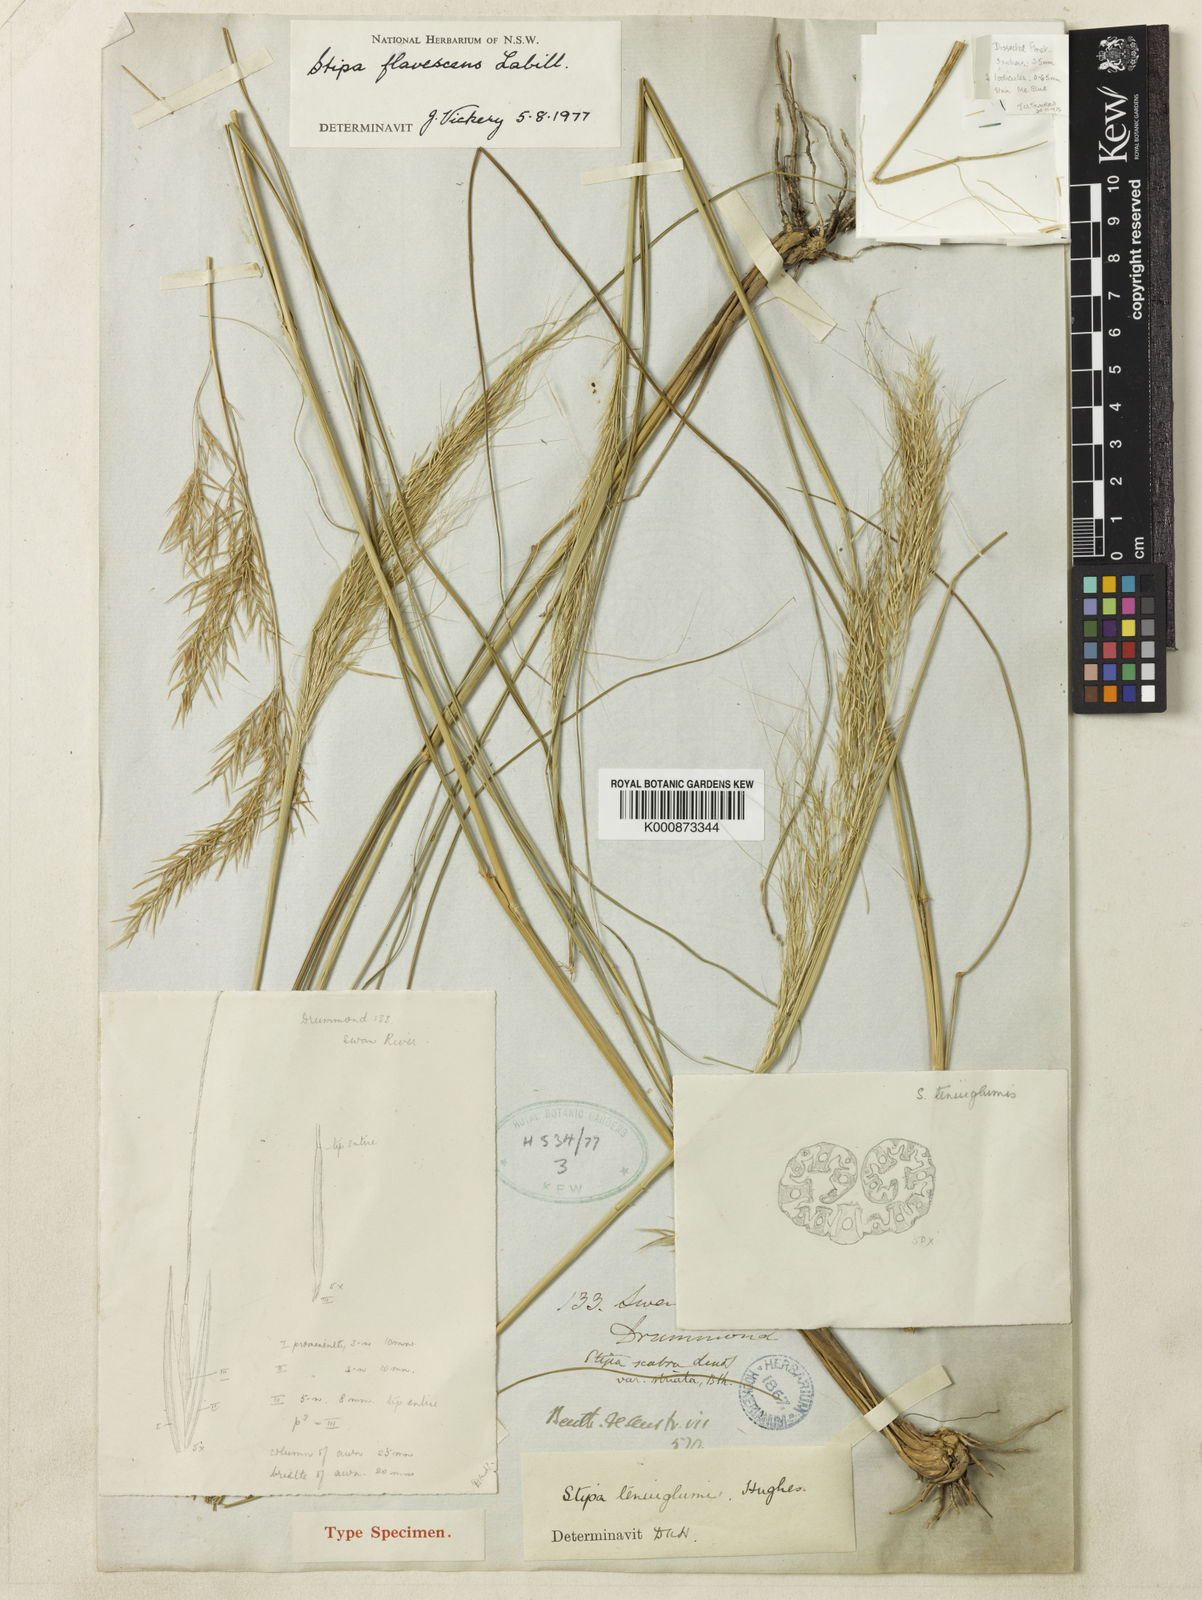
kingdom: Plantae
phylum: Tracheophyta
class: Liliopsida
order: Poales
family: Poaceae
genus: Austrostipa
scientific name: Austrostipa flavescens
